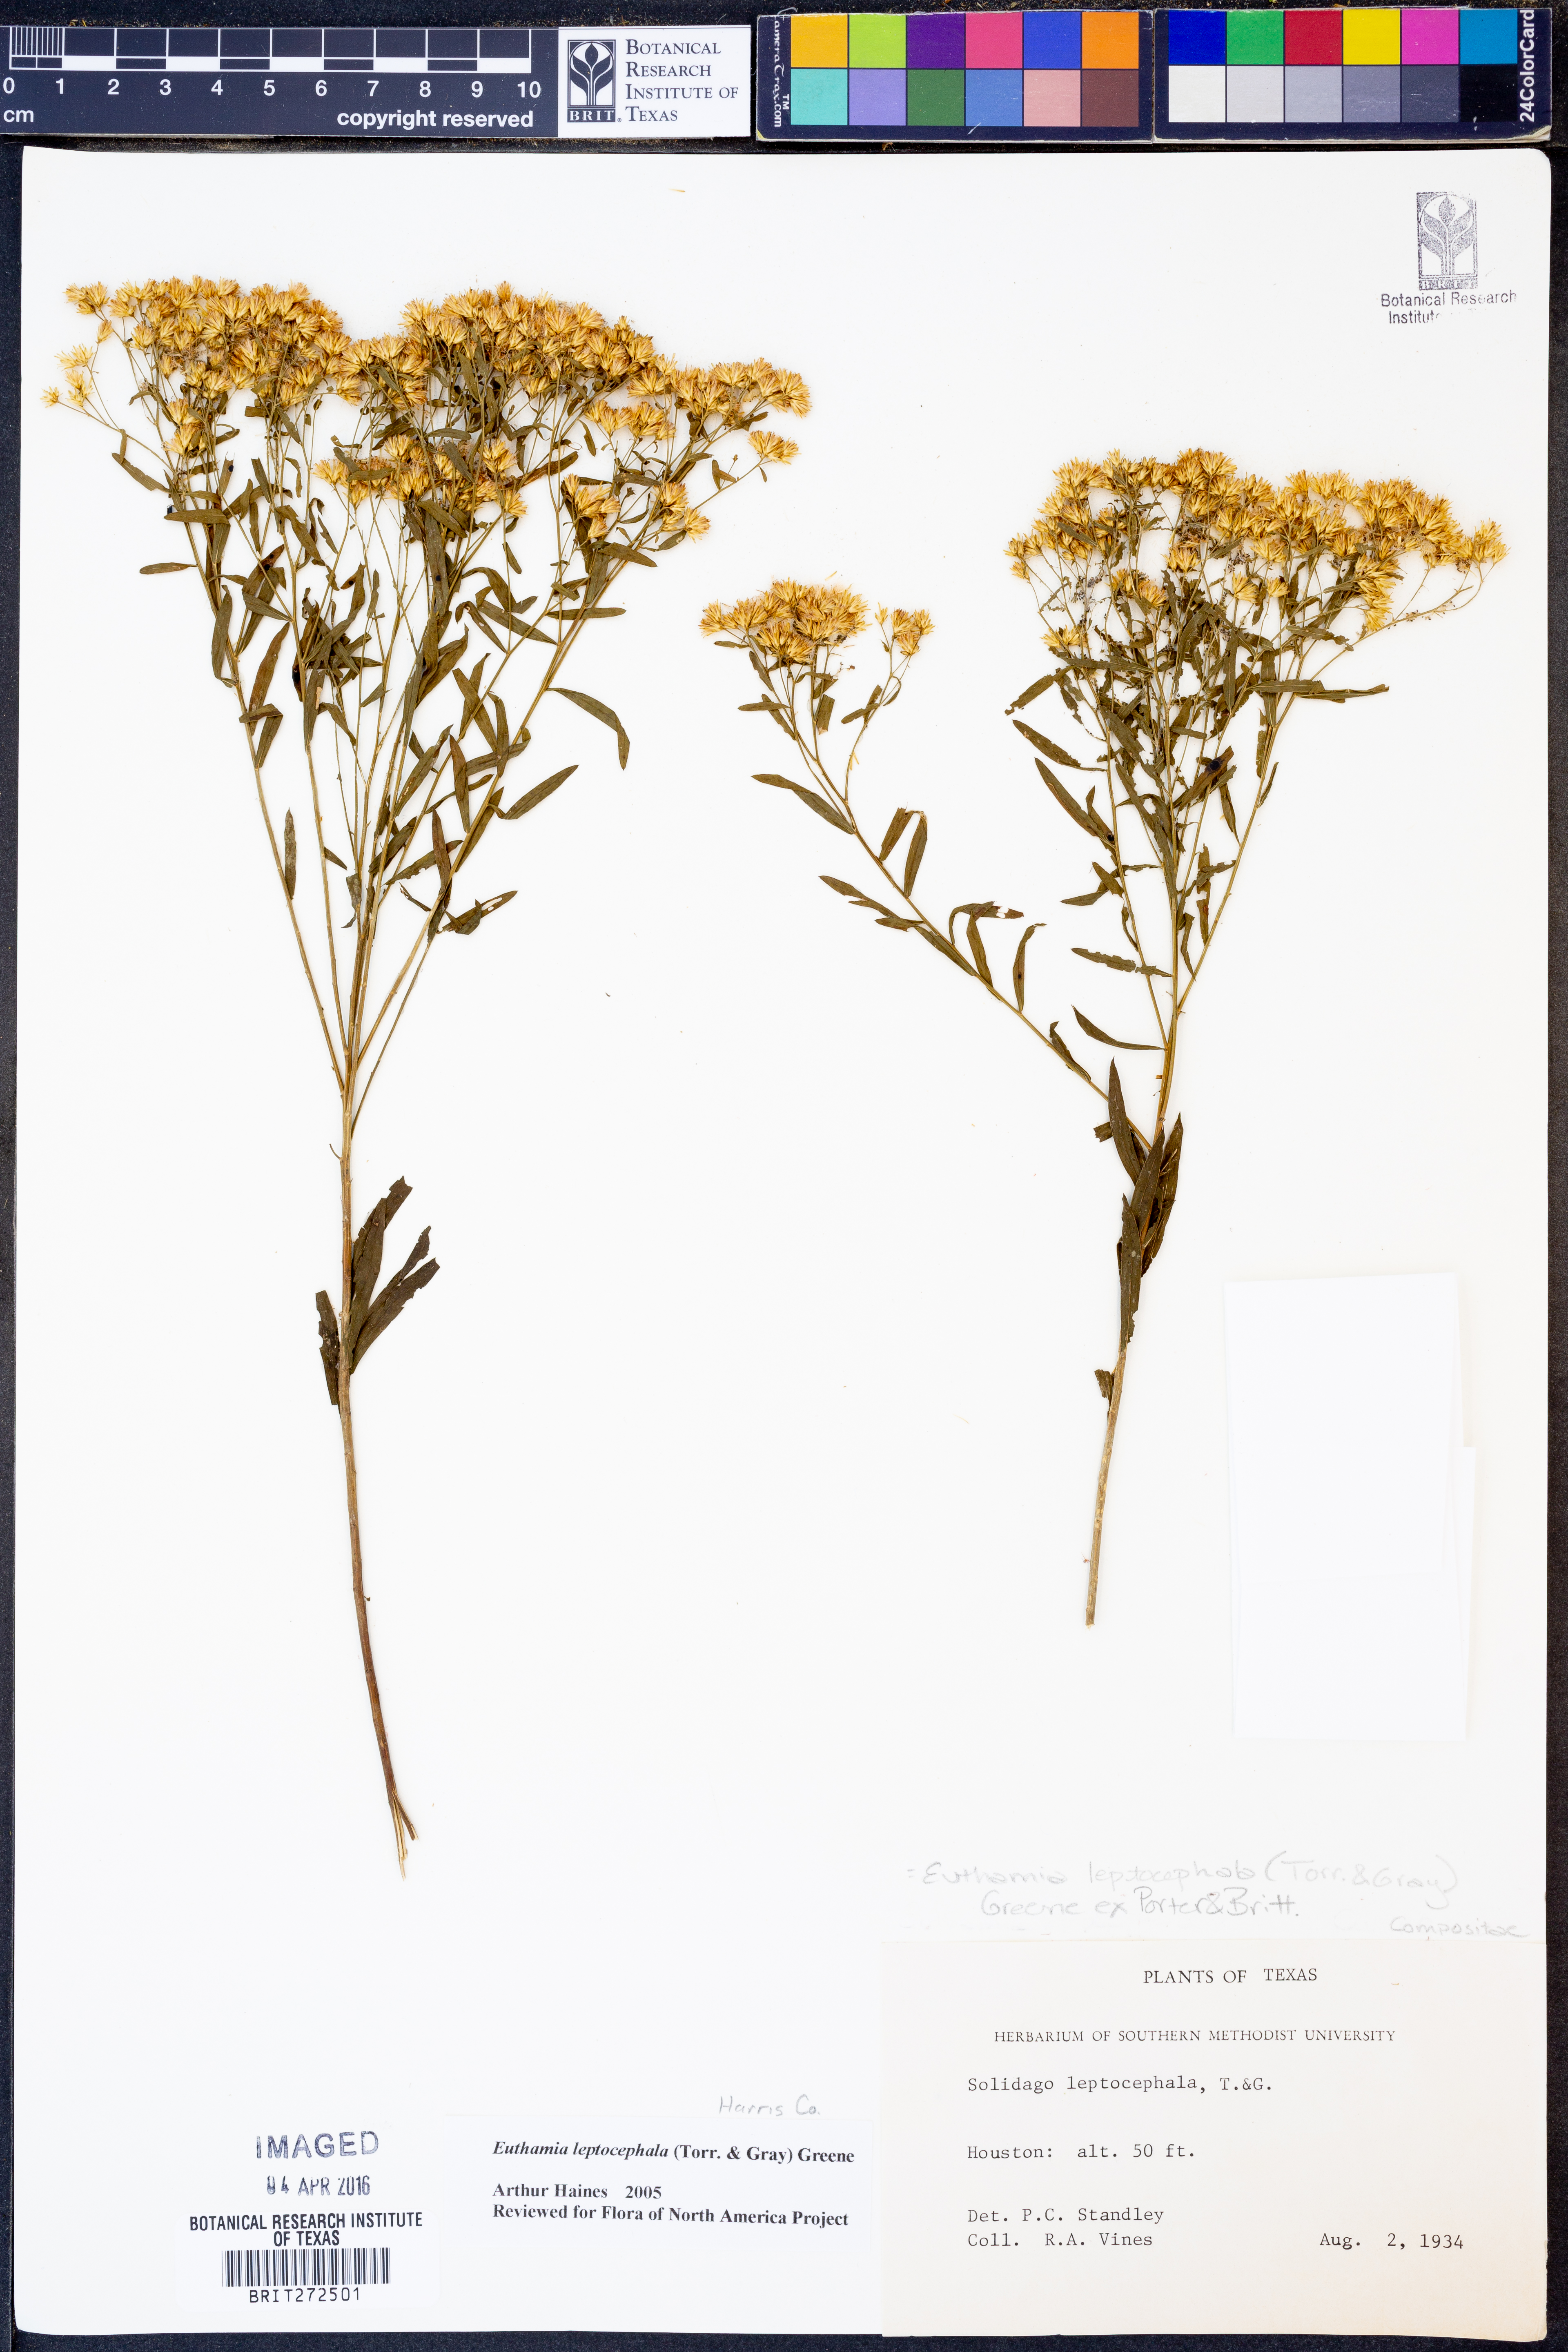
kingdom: Plantae
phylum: Tracheophyta
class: Magnoliopsida
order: Asterales
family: Asteraceae
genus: Euthamia
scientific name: Euthamia leptocephala
